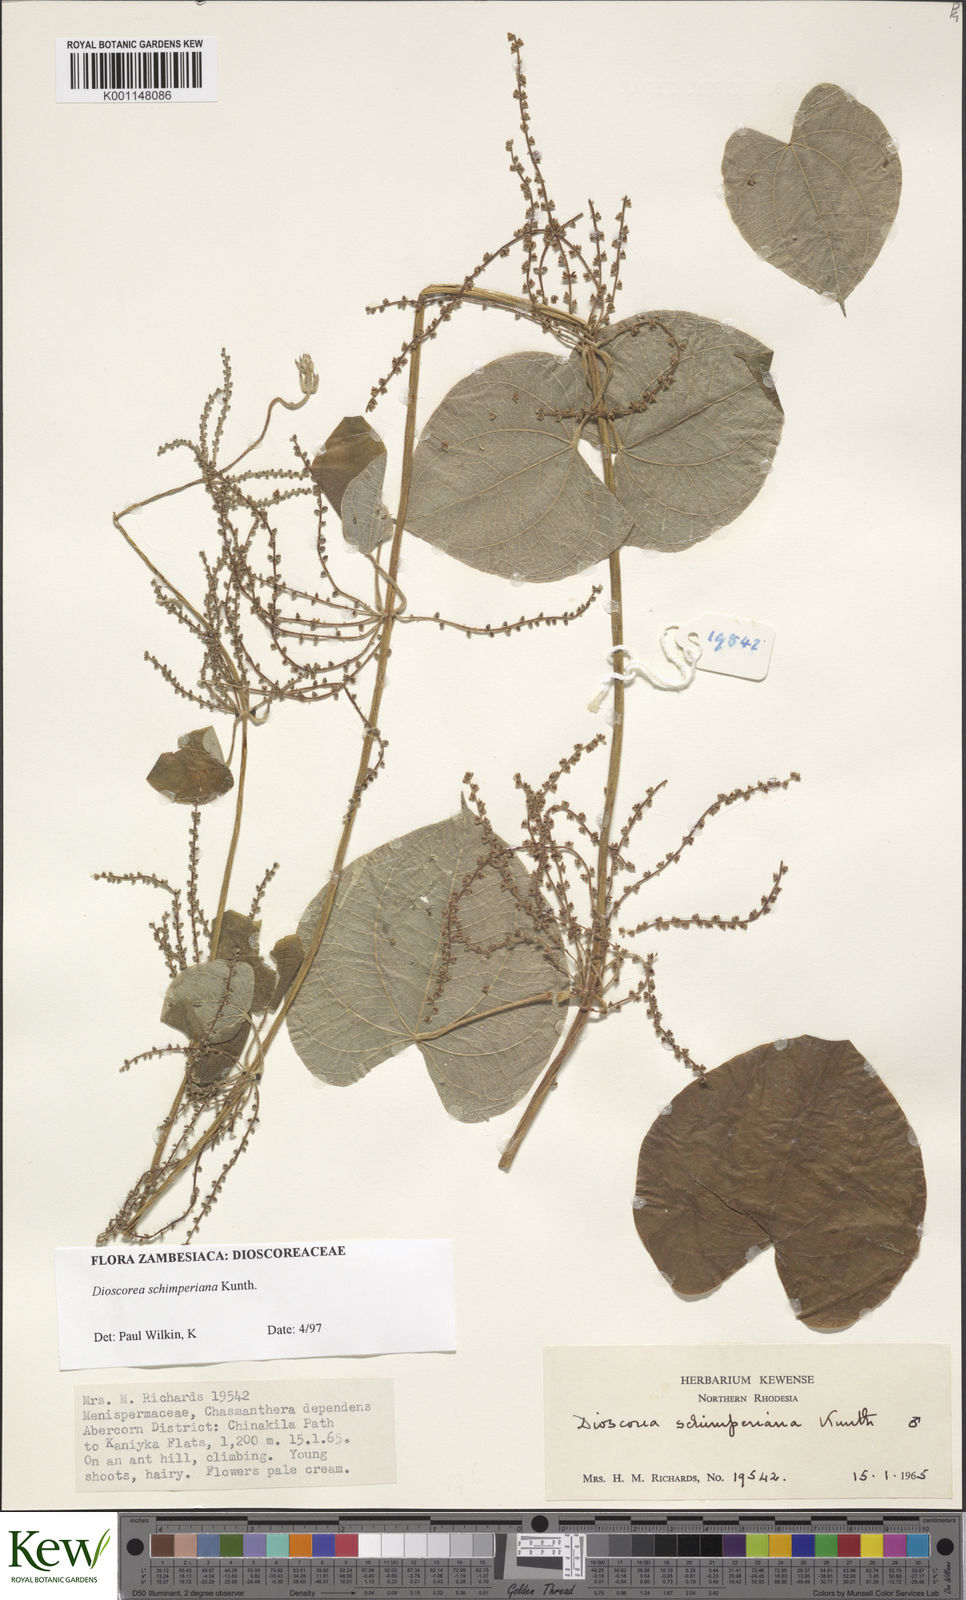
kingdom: Plantae
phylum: Tracheophyta
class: Liliopsida
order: Dioscoreales
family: Dioscoreaceae
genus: Dioscorea
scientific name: Dioscorea schimperiana
